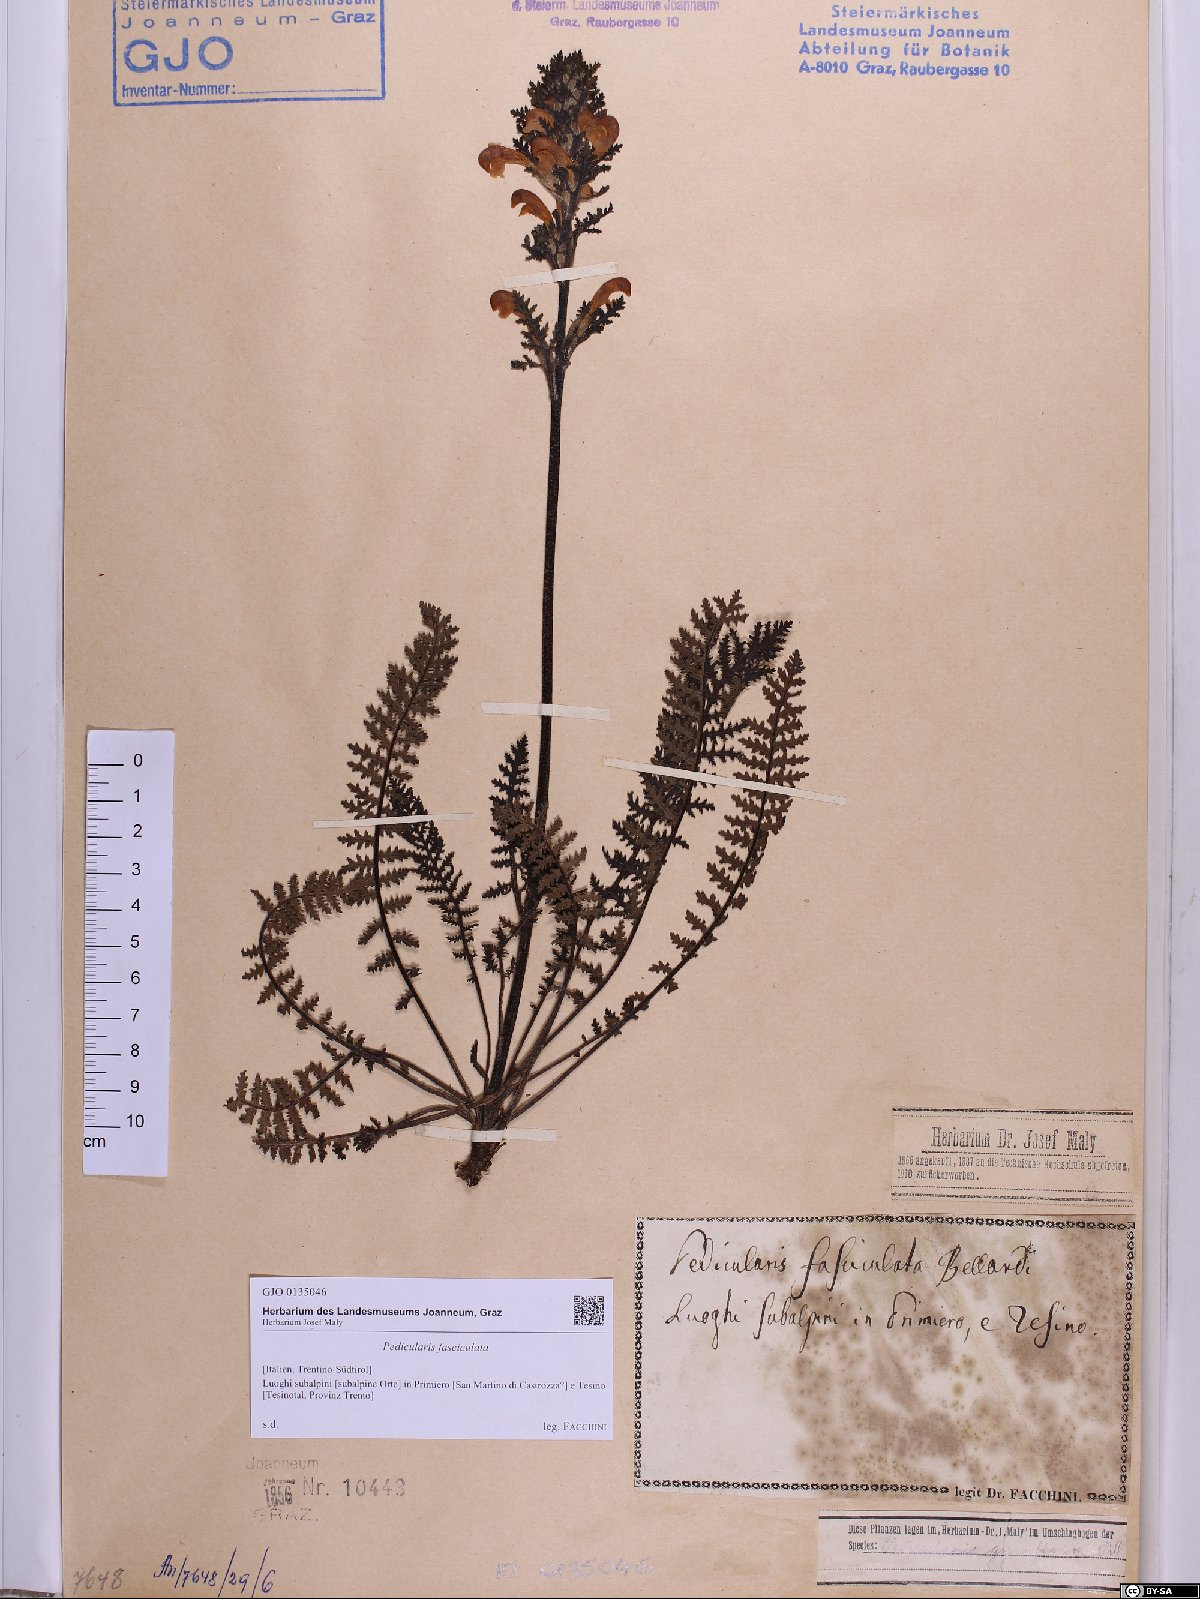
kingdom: Plantae
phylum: Tracheophyta
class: Magnoliopsida
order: Lamiales
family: Orobanchaceae
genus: Pedicularis
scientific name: Pedicularis gyroflexa
